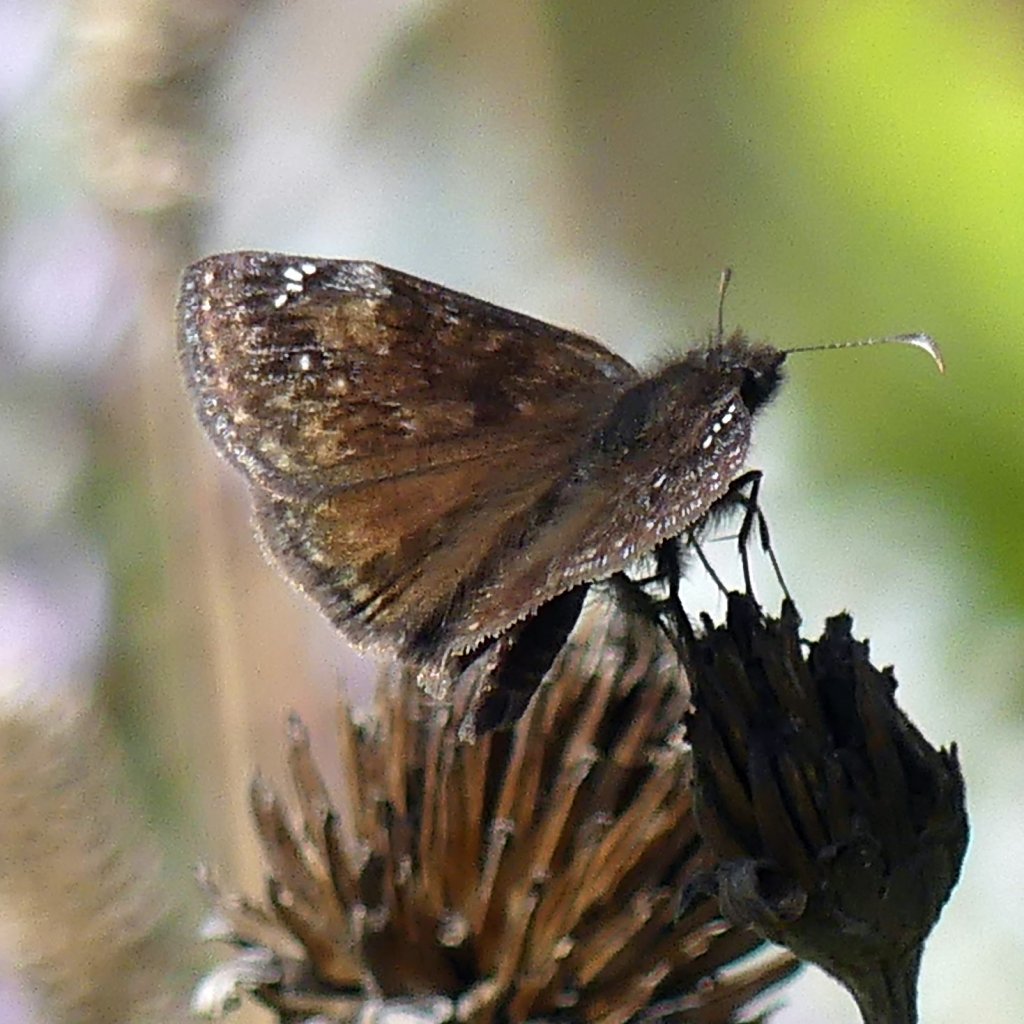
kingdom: Animalia
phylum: Arthropoda
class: Insecta
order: Lepidoptera
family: Hesperiidae
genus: Gesta
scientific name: Gesta
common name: Wild Indigo Duskywing
